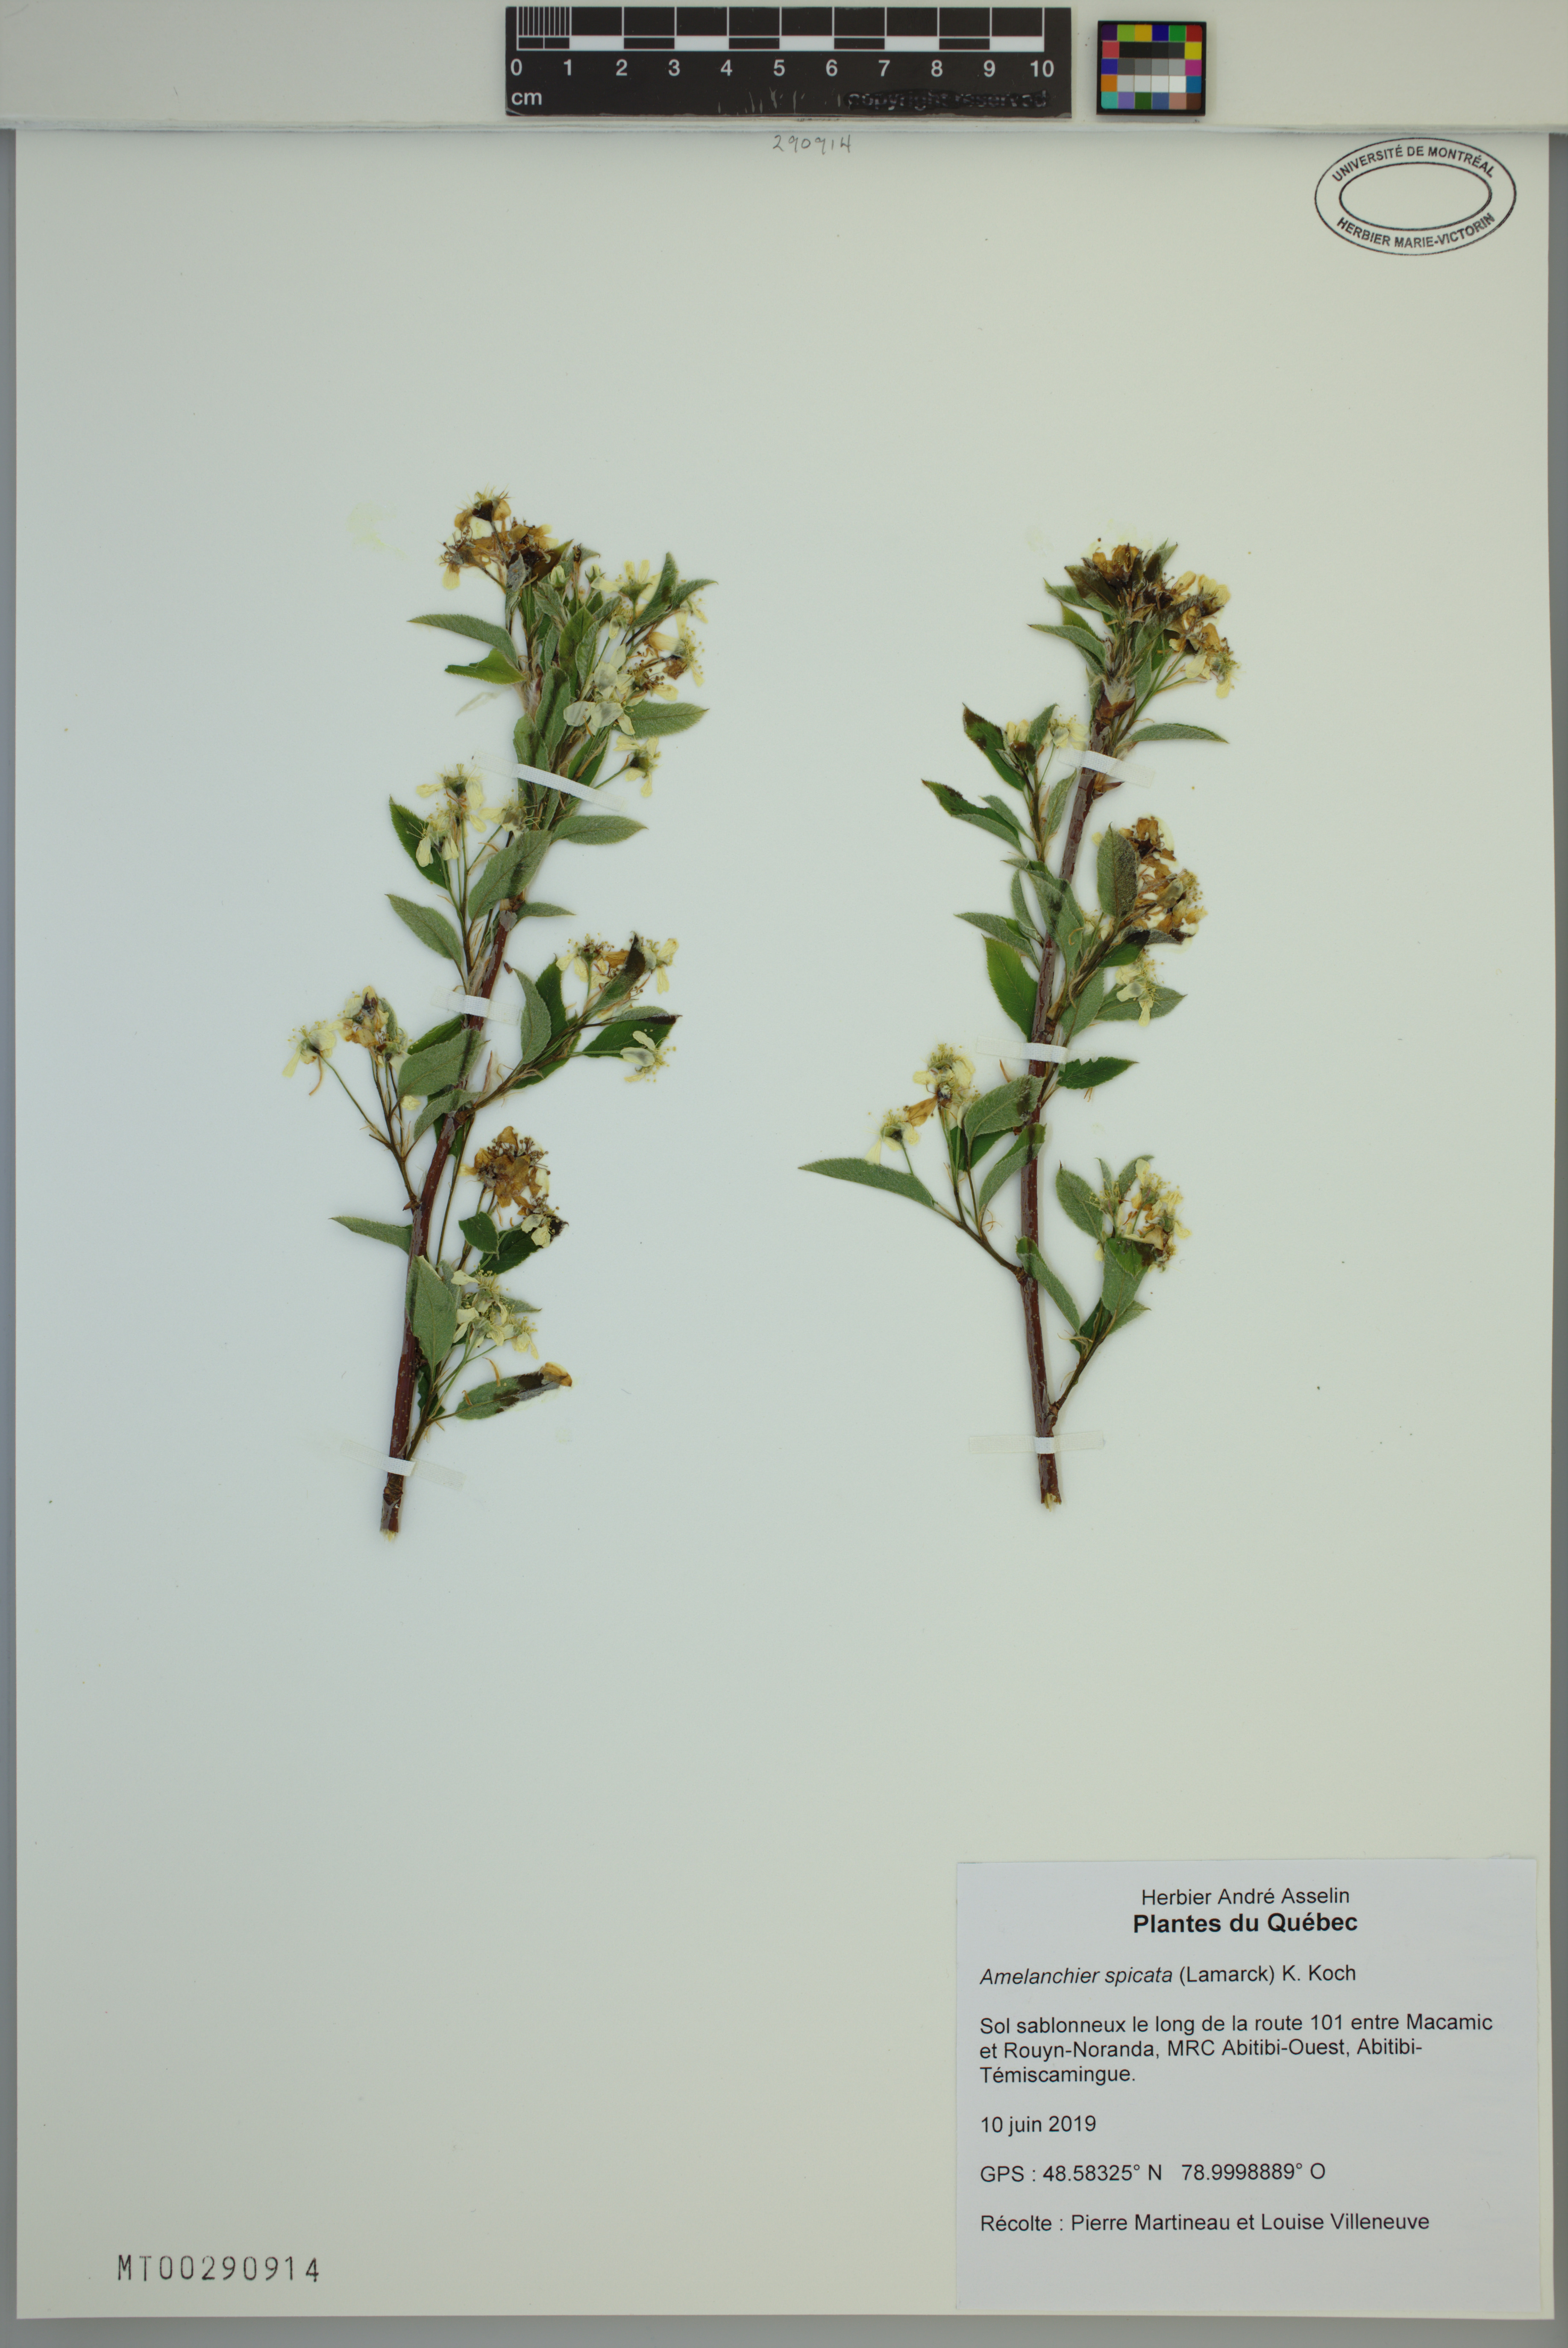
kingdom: Plantae
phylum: Tracheophyta
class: Magnoliopsida
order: Rosales
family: Rosaceae
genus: Amelanchier
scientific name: Amelanchier humilis
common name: Low juneberry
